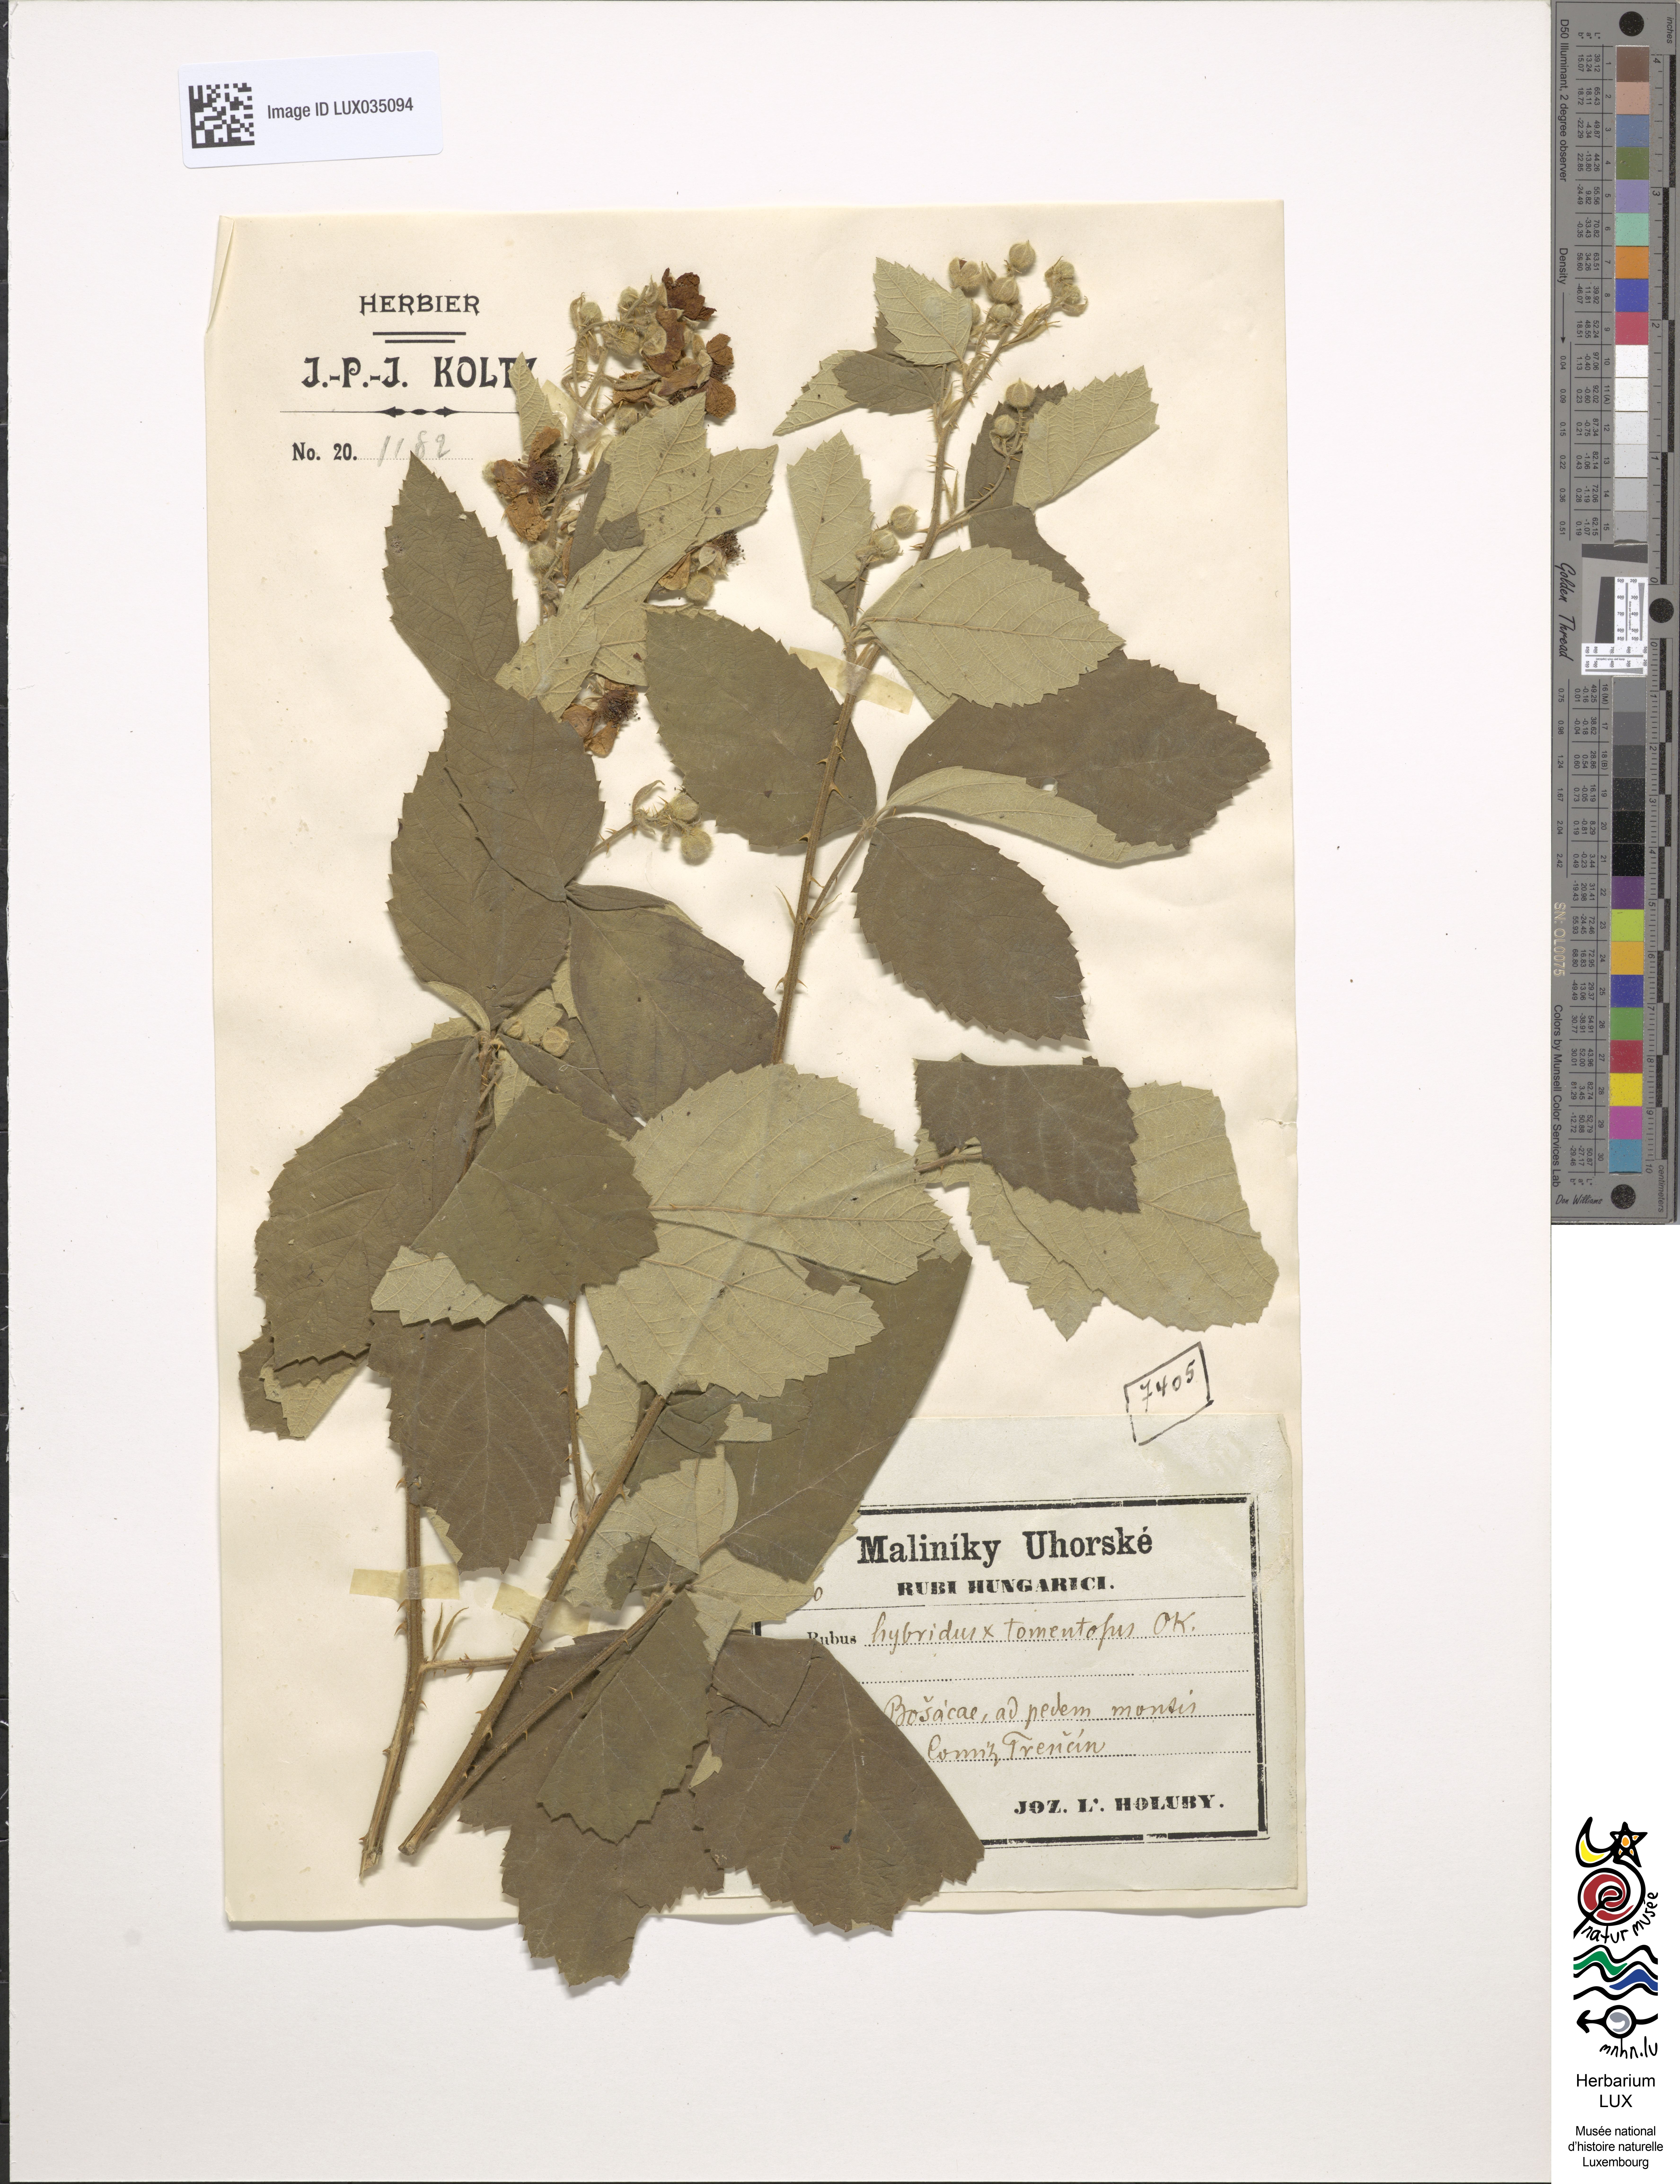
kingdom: Plantae
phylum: Tracheophyta
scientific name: Tracheophyta
